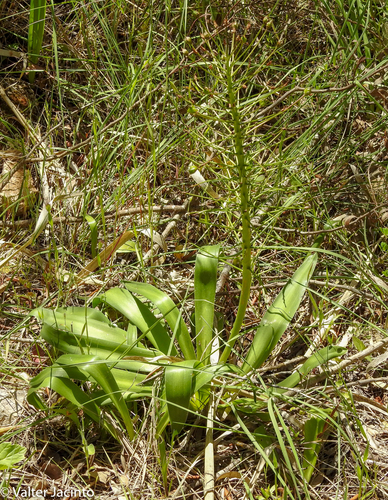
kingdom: Plantae
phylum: Tracheophyta
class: Liliopsida
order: Asparagales
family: Asparagaceae
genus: Scilla
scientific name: Scilla peruviana
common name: Portuguese squill
